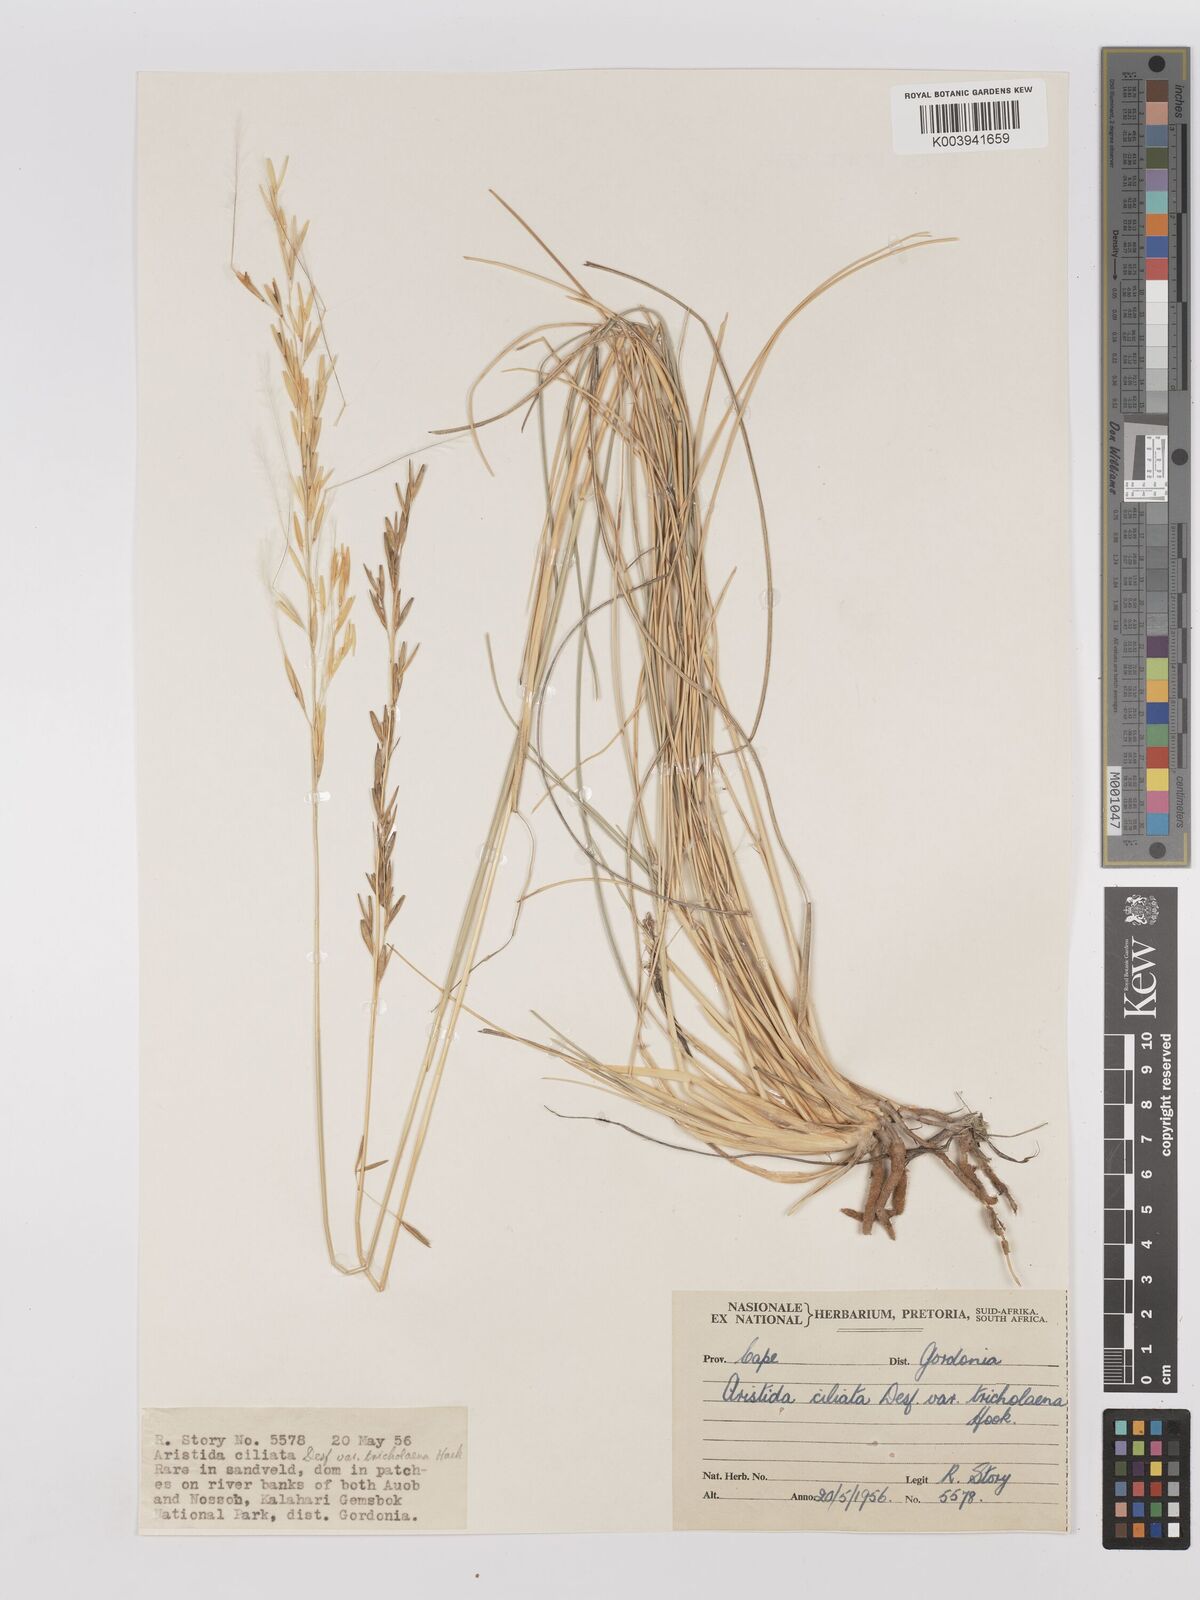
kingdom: Plantae
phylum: Tracheophyta
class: Liliopsida
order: Poales
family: Poaceae
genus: Stipagrostis
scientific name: Stipagrostis ciliata
